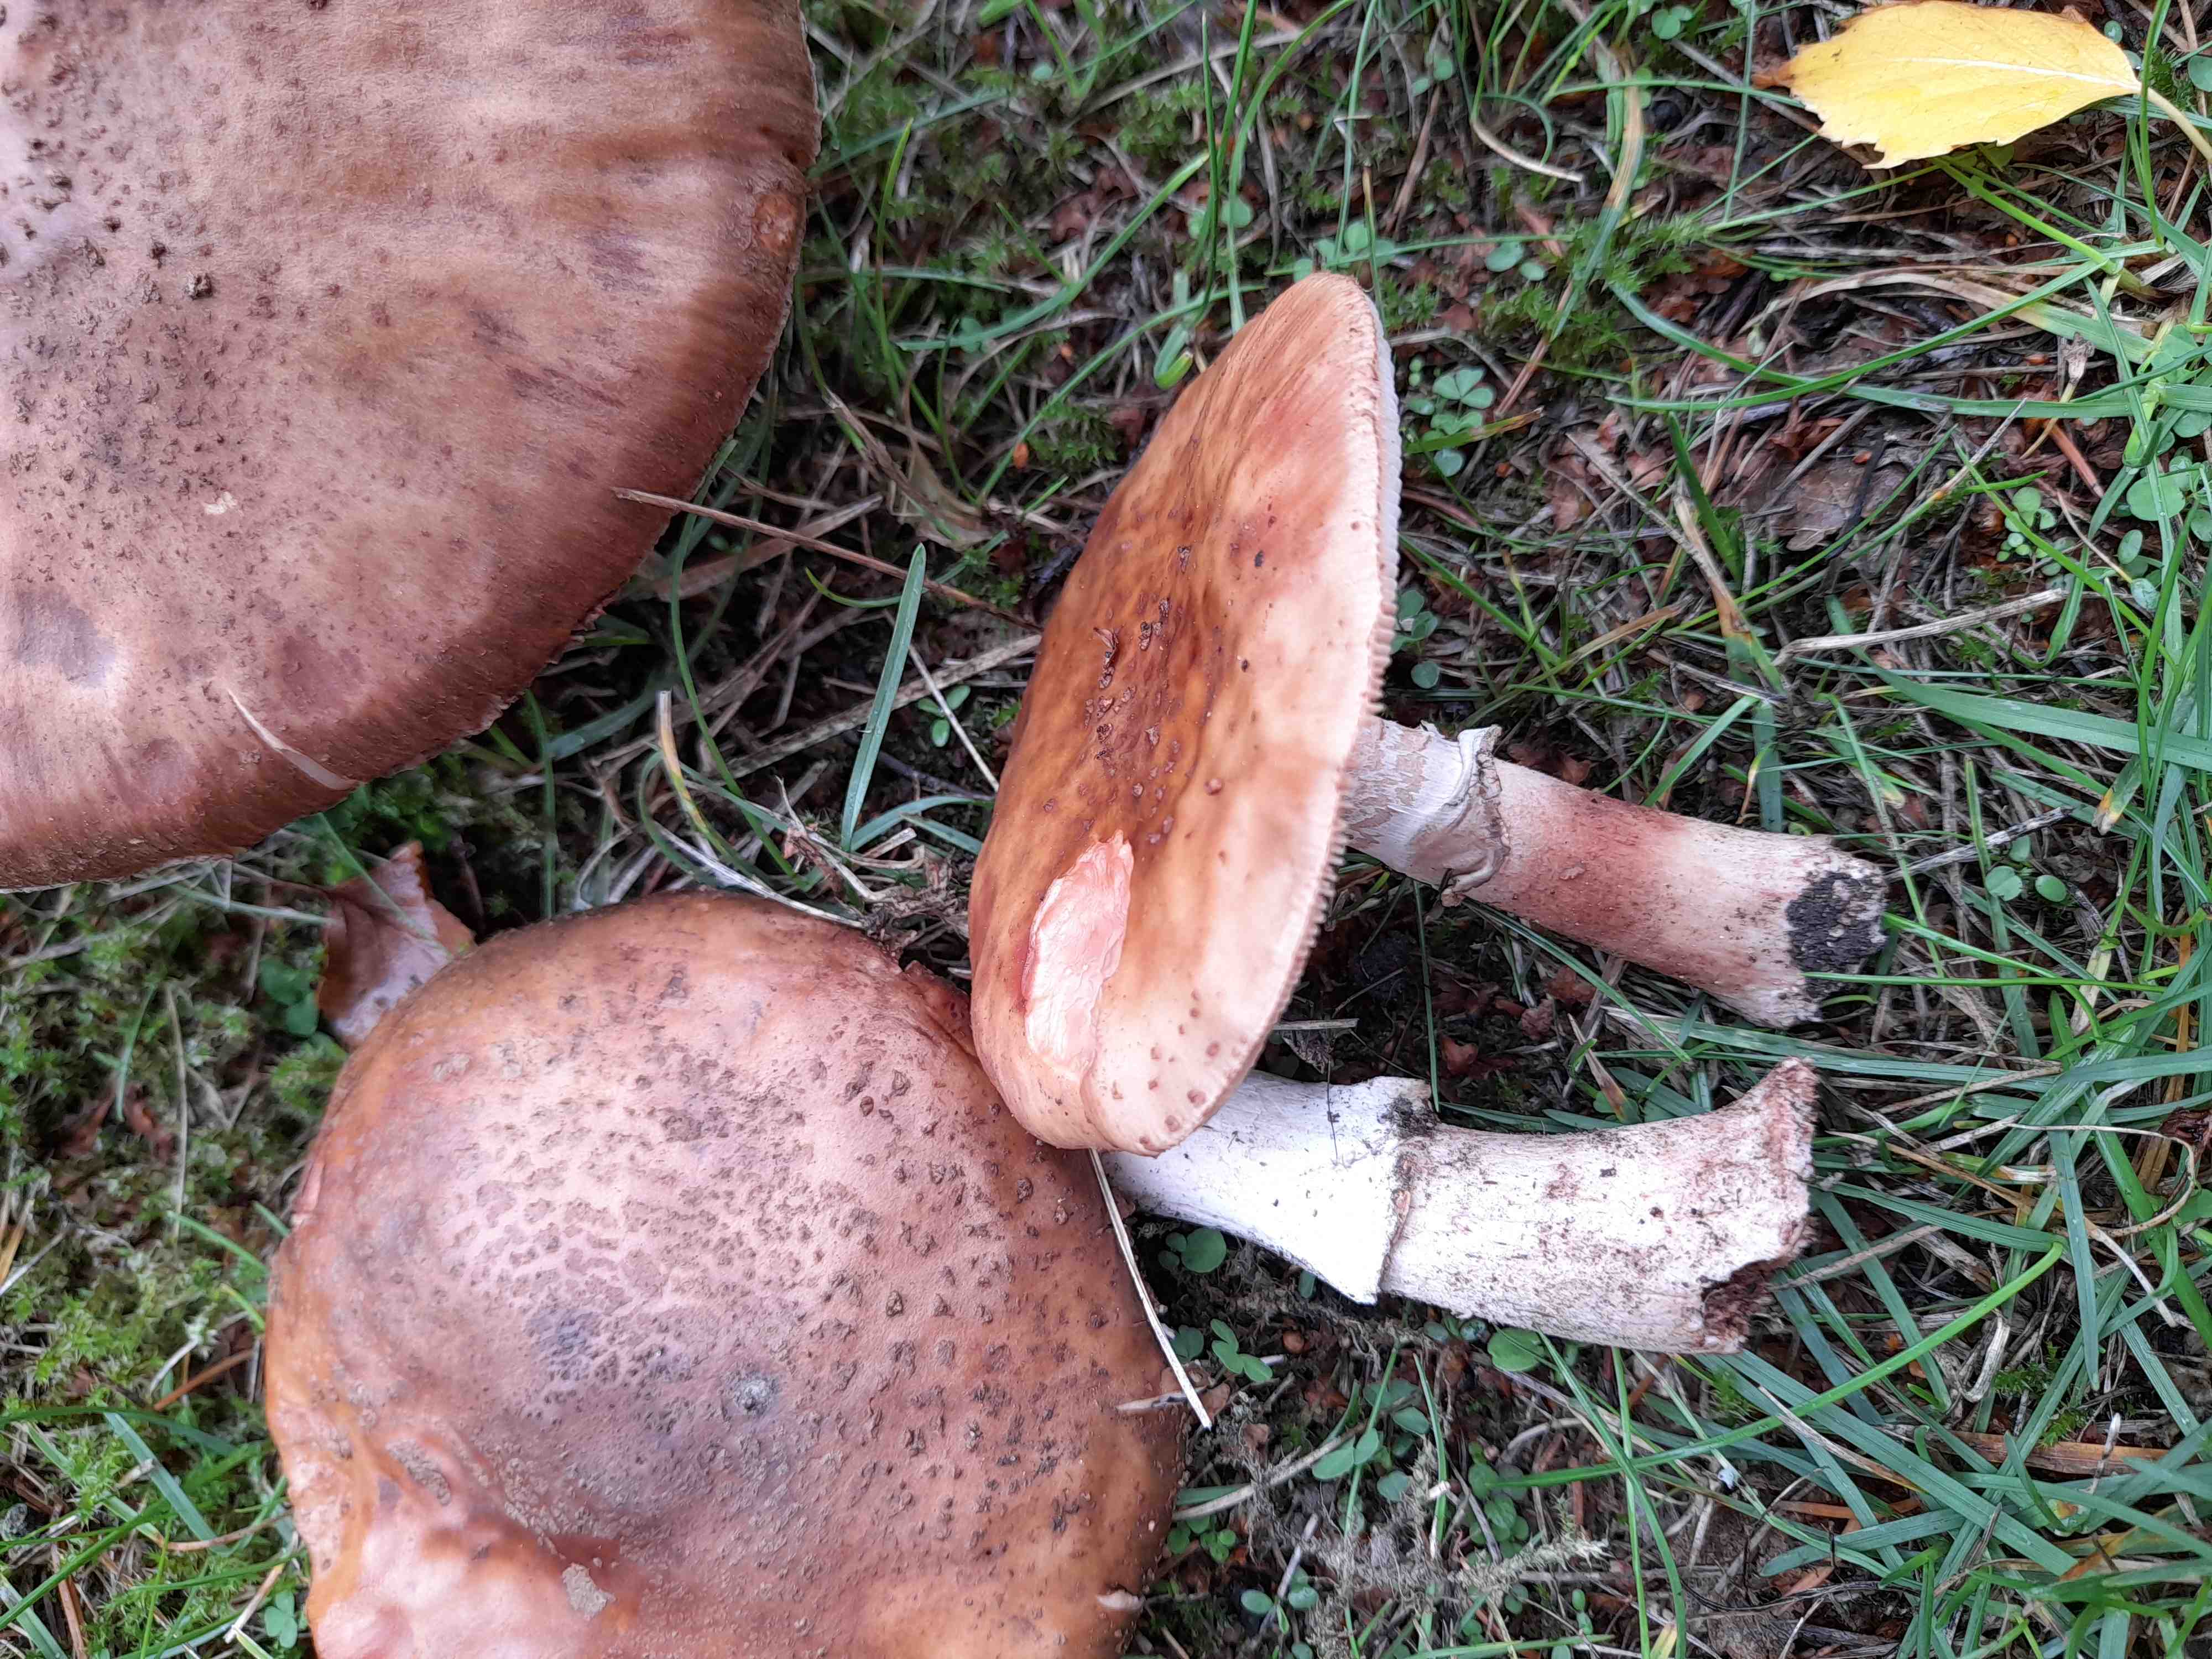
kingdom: Fungi
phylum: Basidiomycota
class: Agaricomycetes
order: Agaricales
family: Amanitaceae
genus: Amanita
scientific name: Amanita rubescens
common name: rødmende fluesvamp
